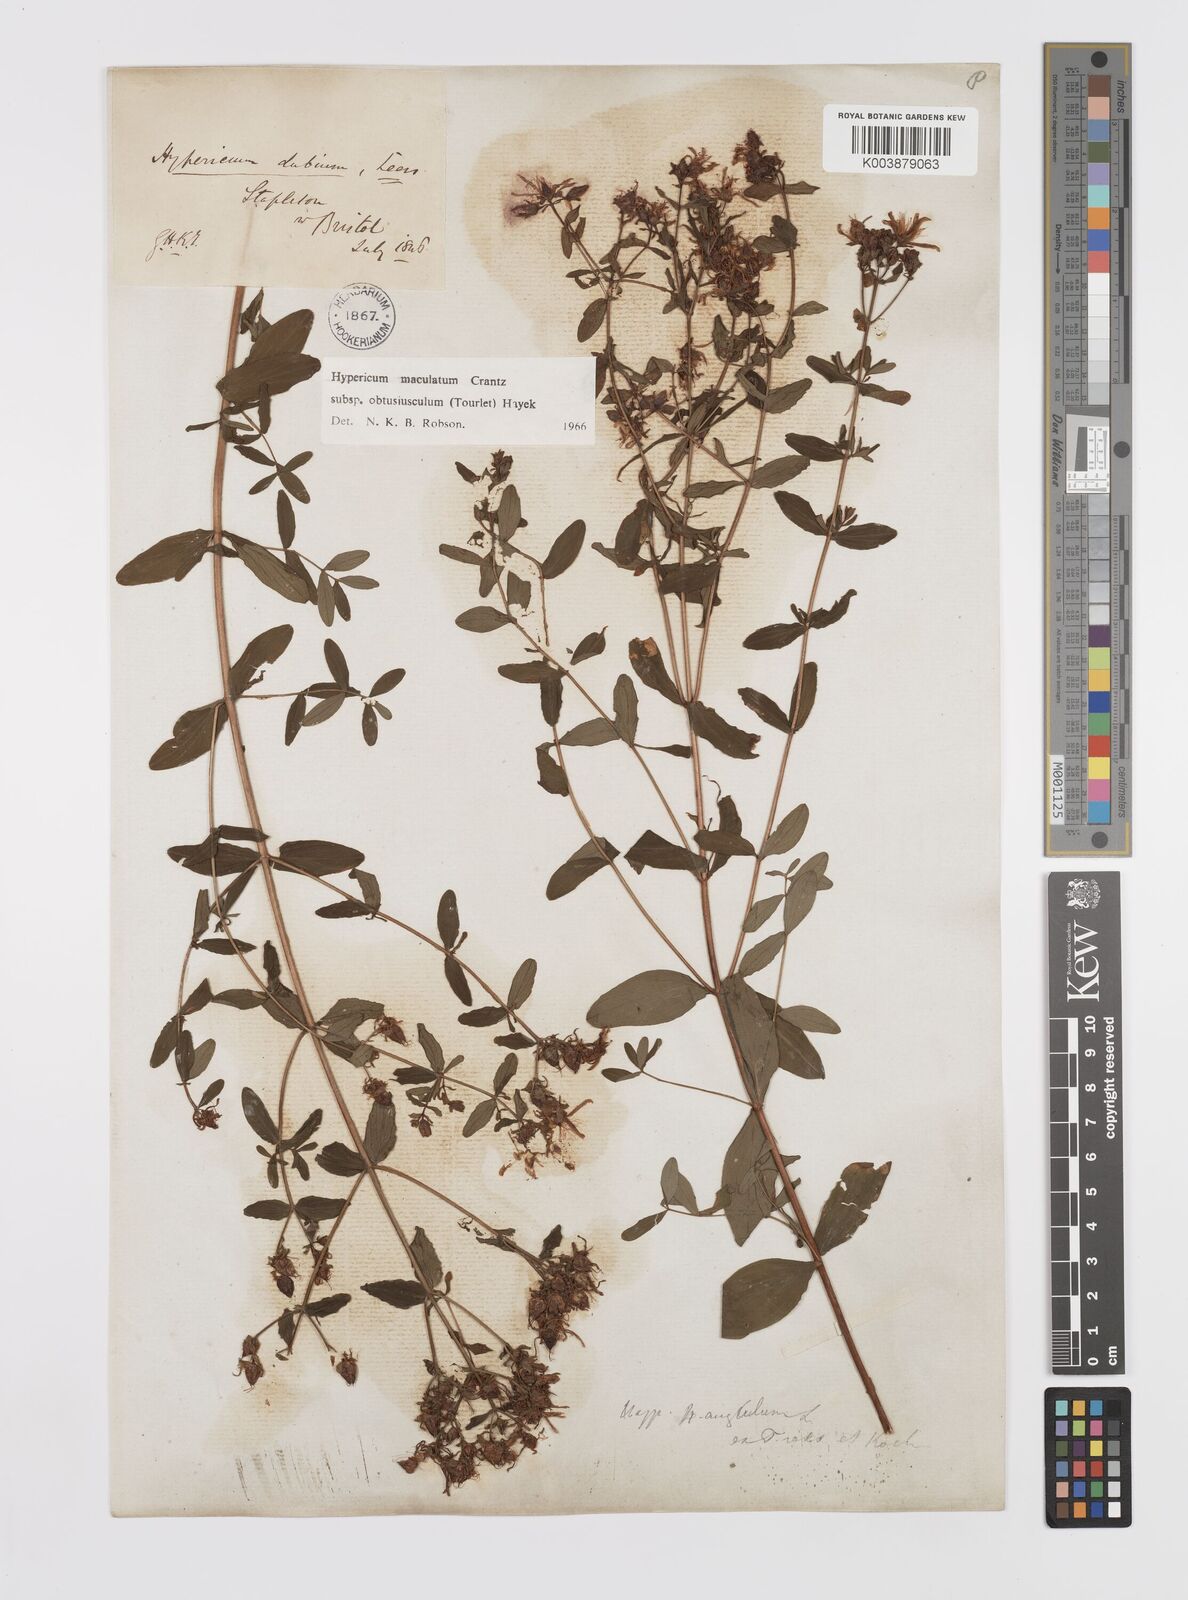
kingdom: Plantae
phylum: Tracheophyta
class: Magnoliopsida
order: Malpighiales
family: Hypericaceae
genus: Hypericum
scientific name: Hypericum dubium
